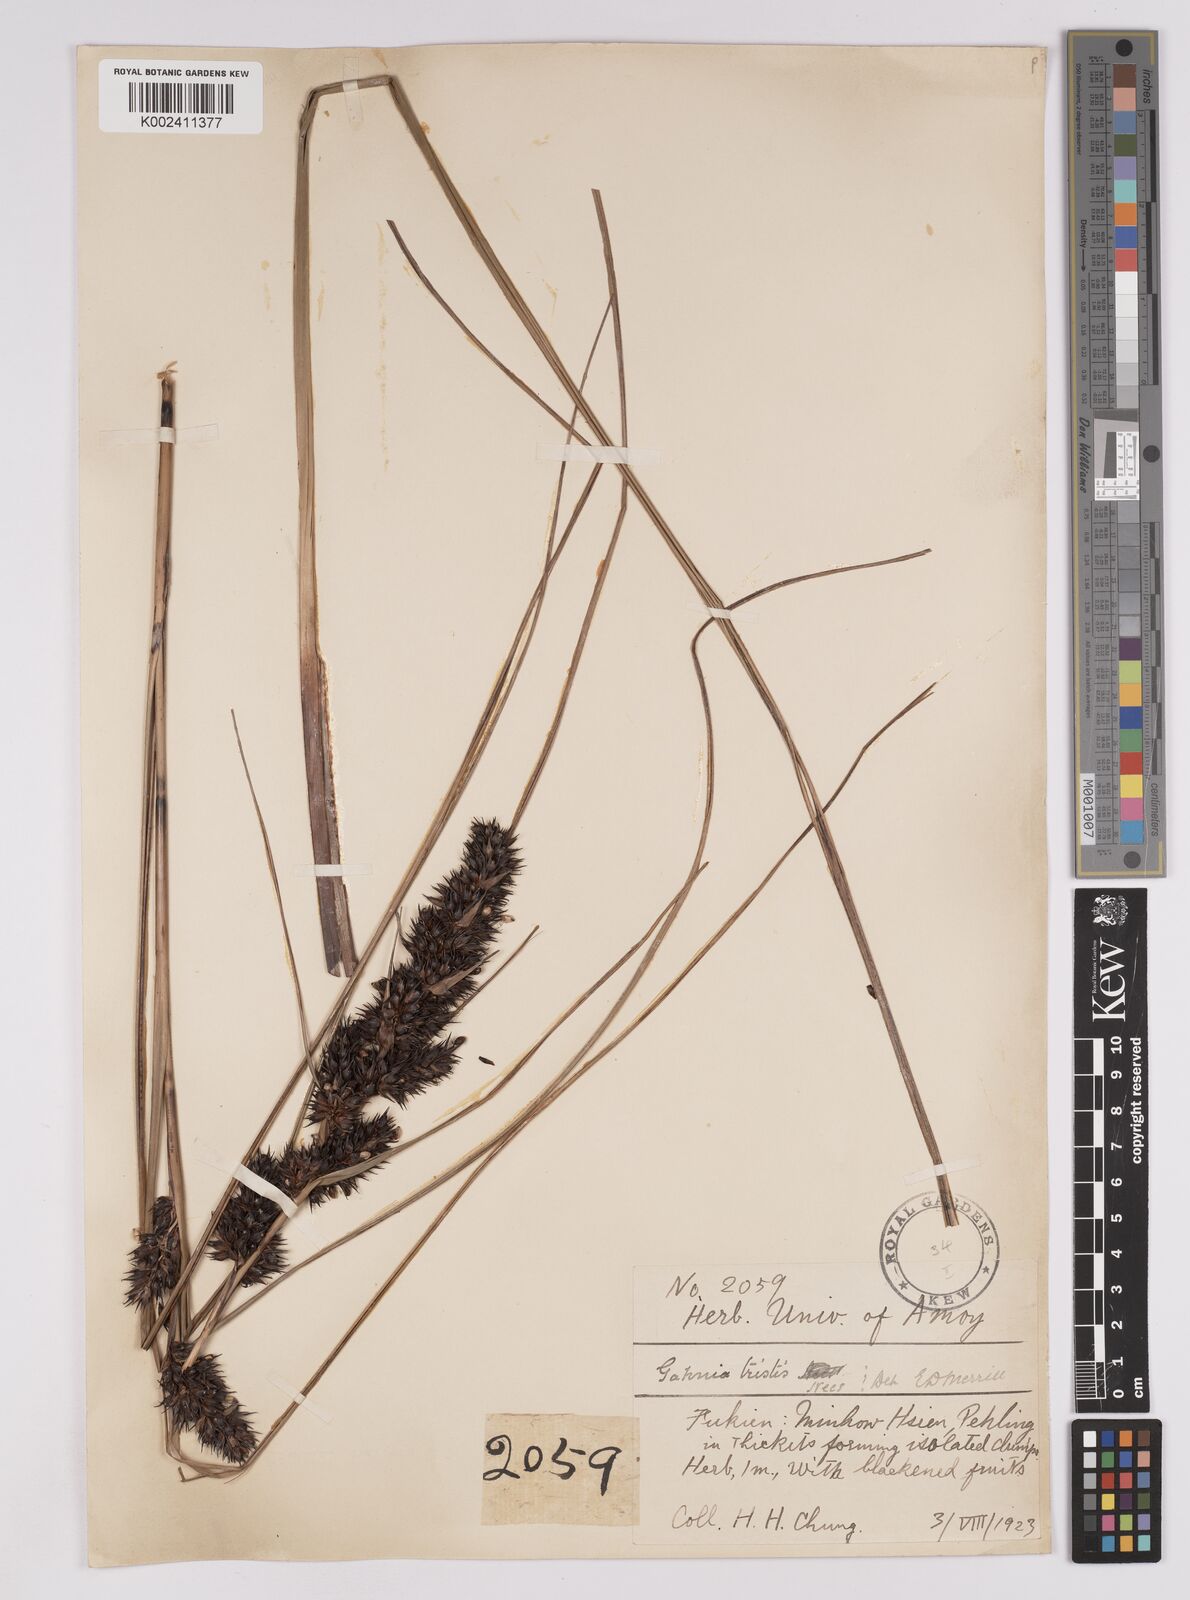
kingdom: Plantae
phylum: Tracheophyta
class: Liliopsida
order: Poales
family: Cyperaceae
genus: Gahnia
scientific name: Gahnia tristis
